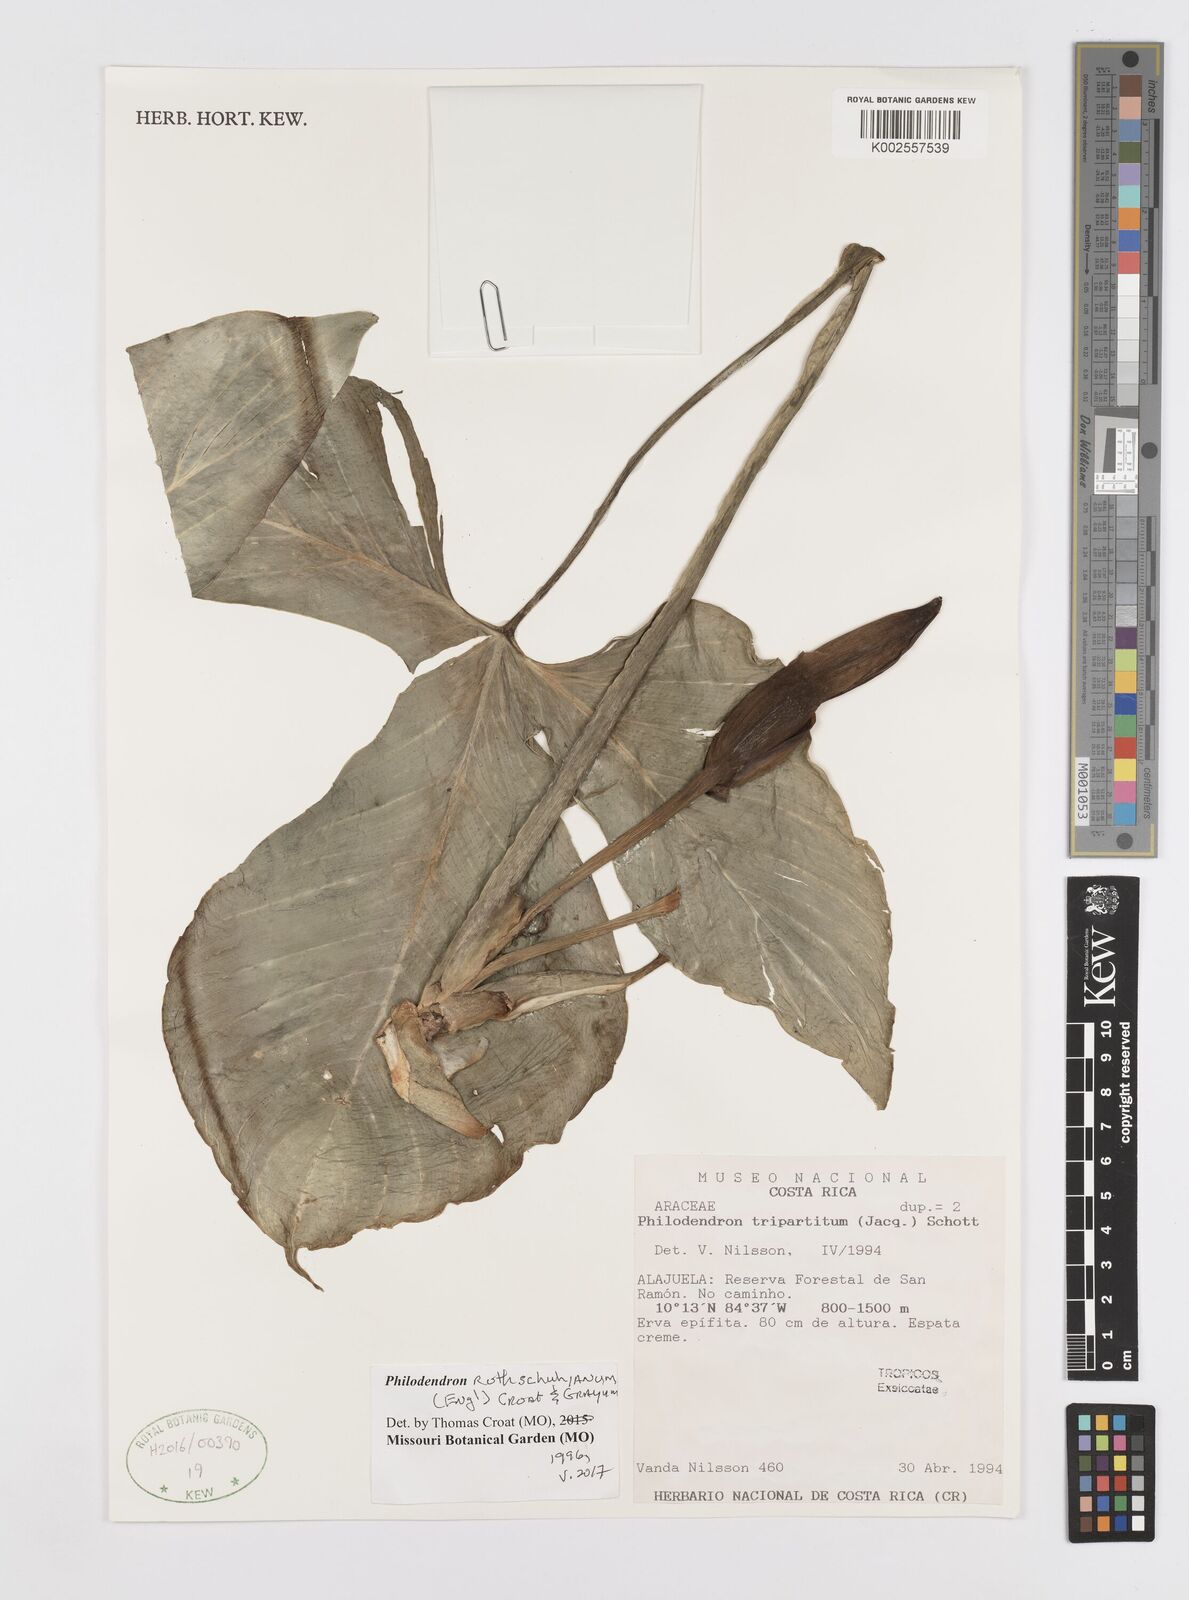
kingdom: Plantae
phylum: Tracheophyta
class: Liliopsida
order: Alismatales
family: Araceae
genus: Philodendron
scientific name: Philodendron rothschuhianum
